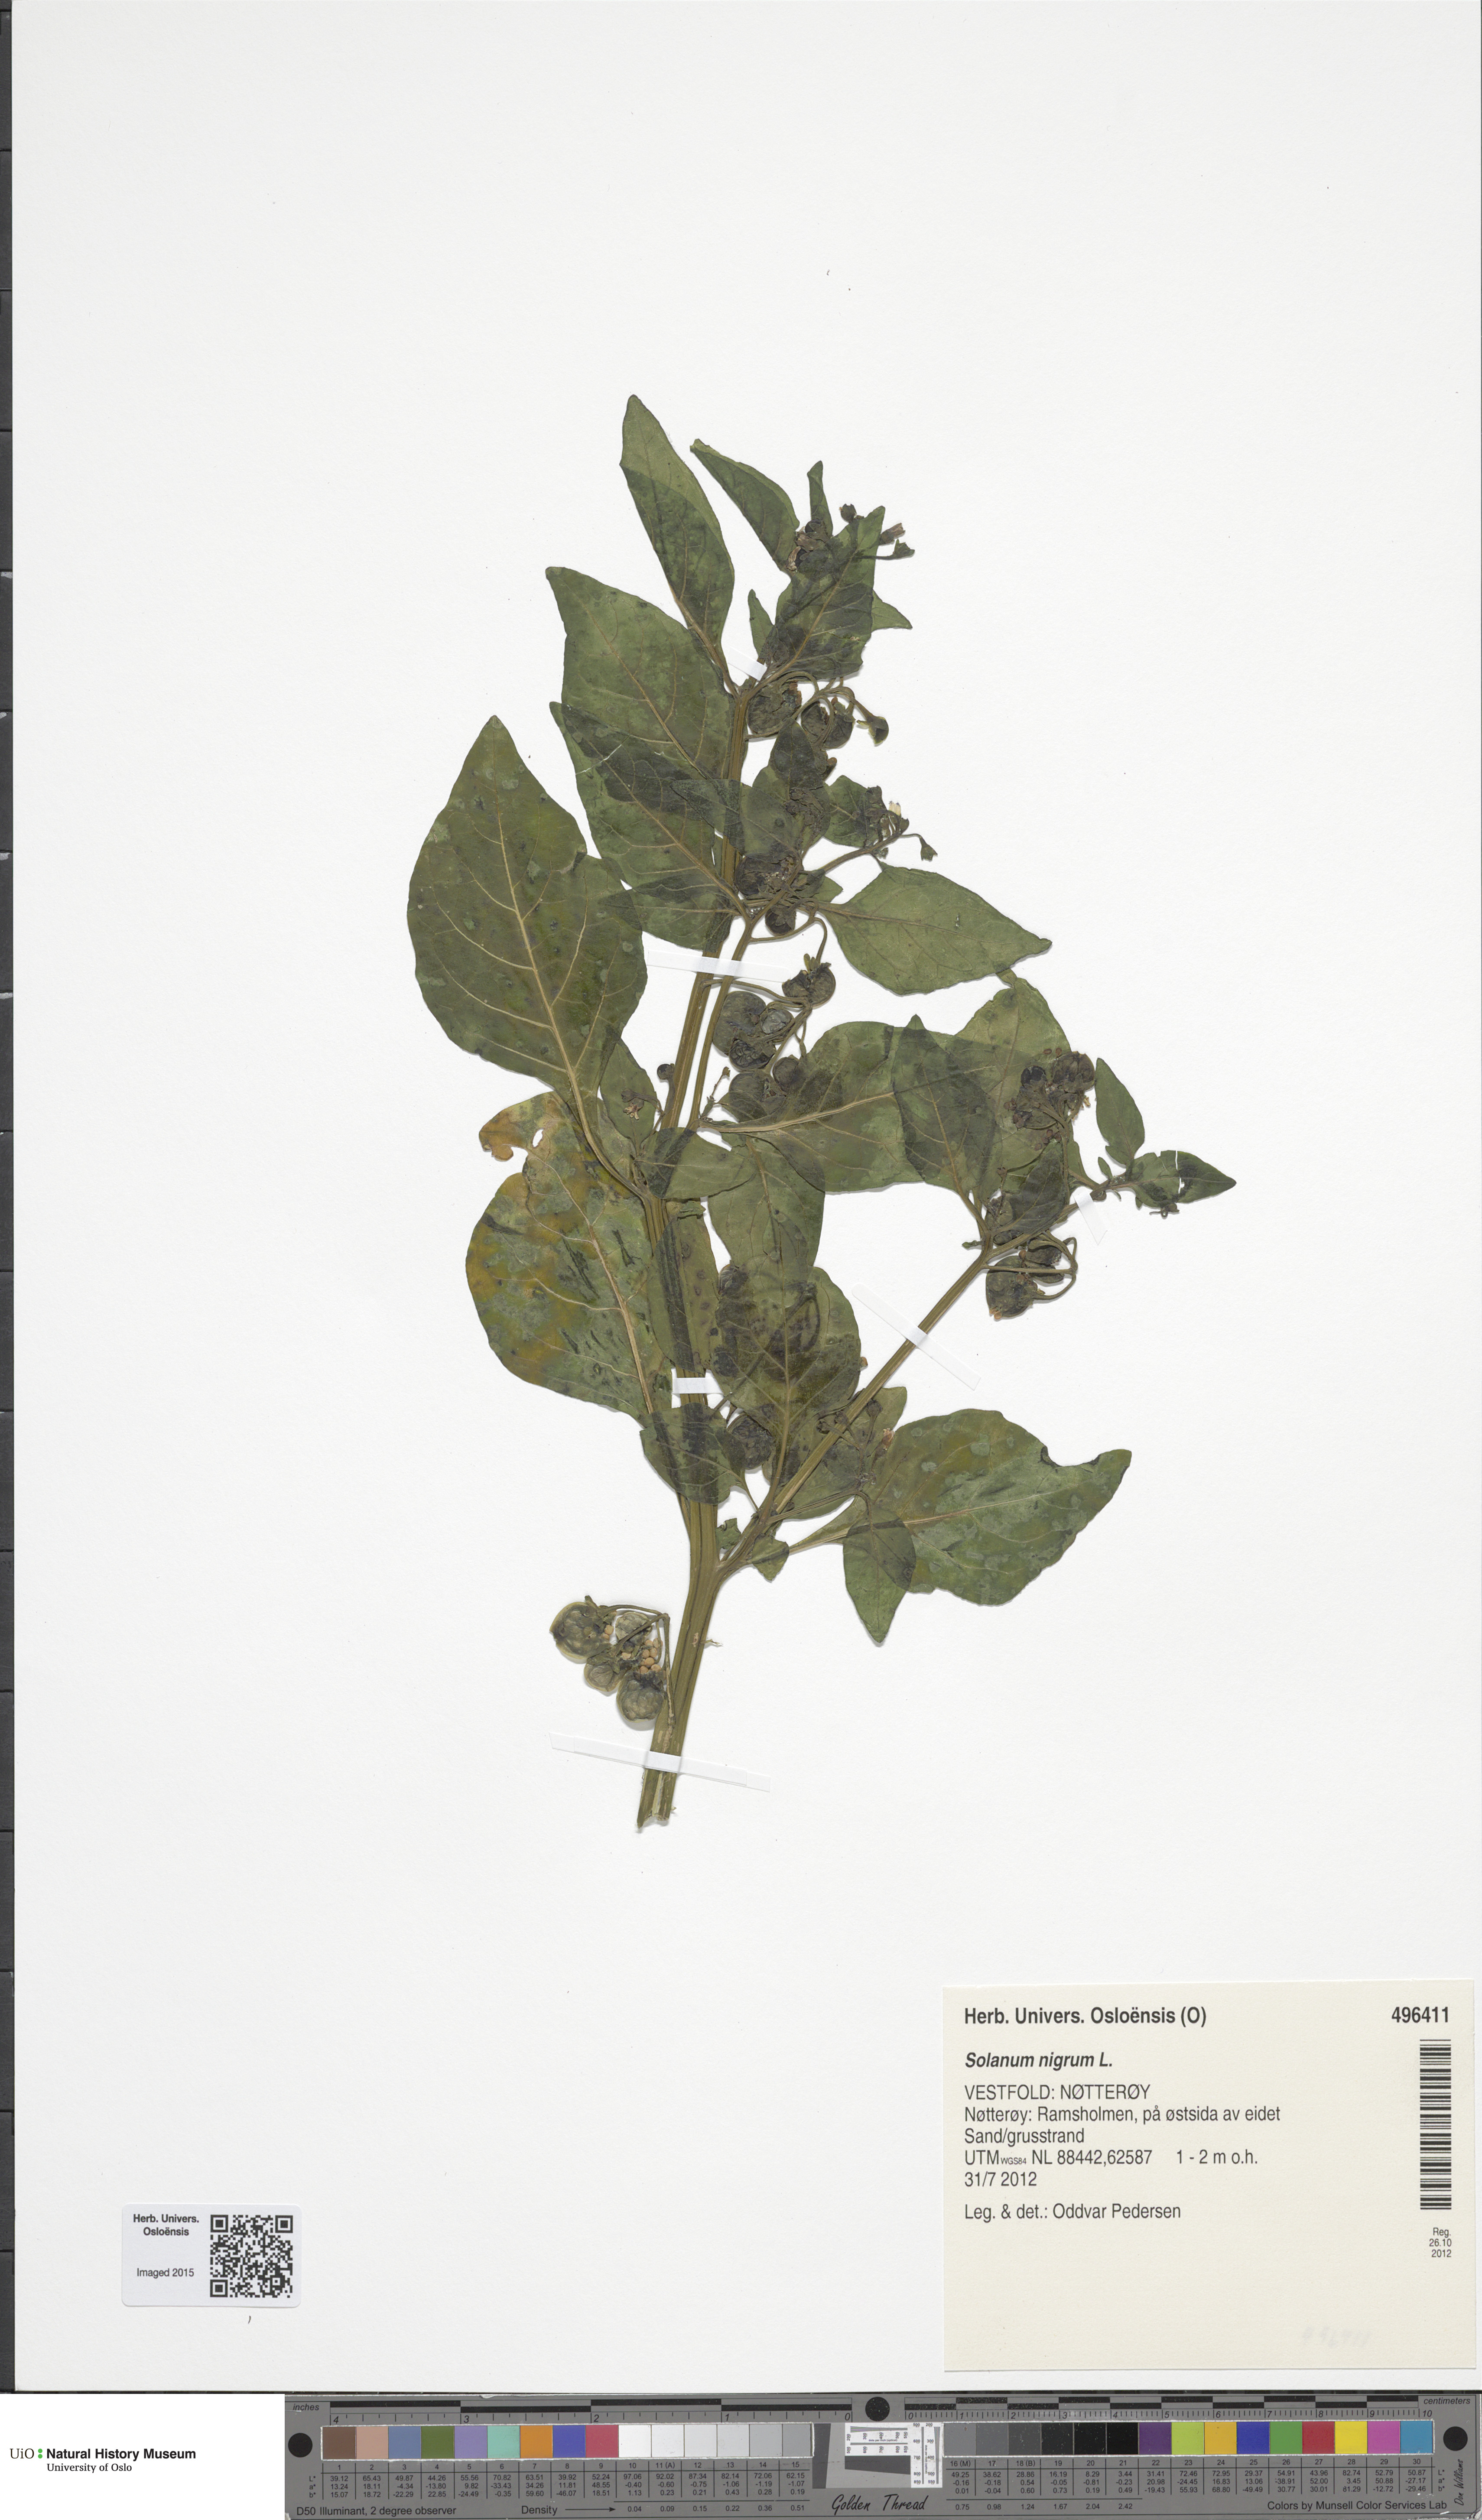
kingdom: Plantae
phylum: Tracheophyta
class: Magnoliopsida
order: Solanales
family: Solanaceae
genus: Solanum
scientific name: Solanum nigrum
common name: Black nightshade
